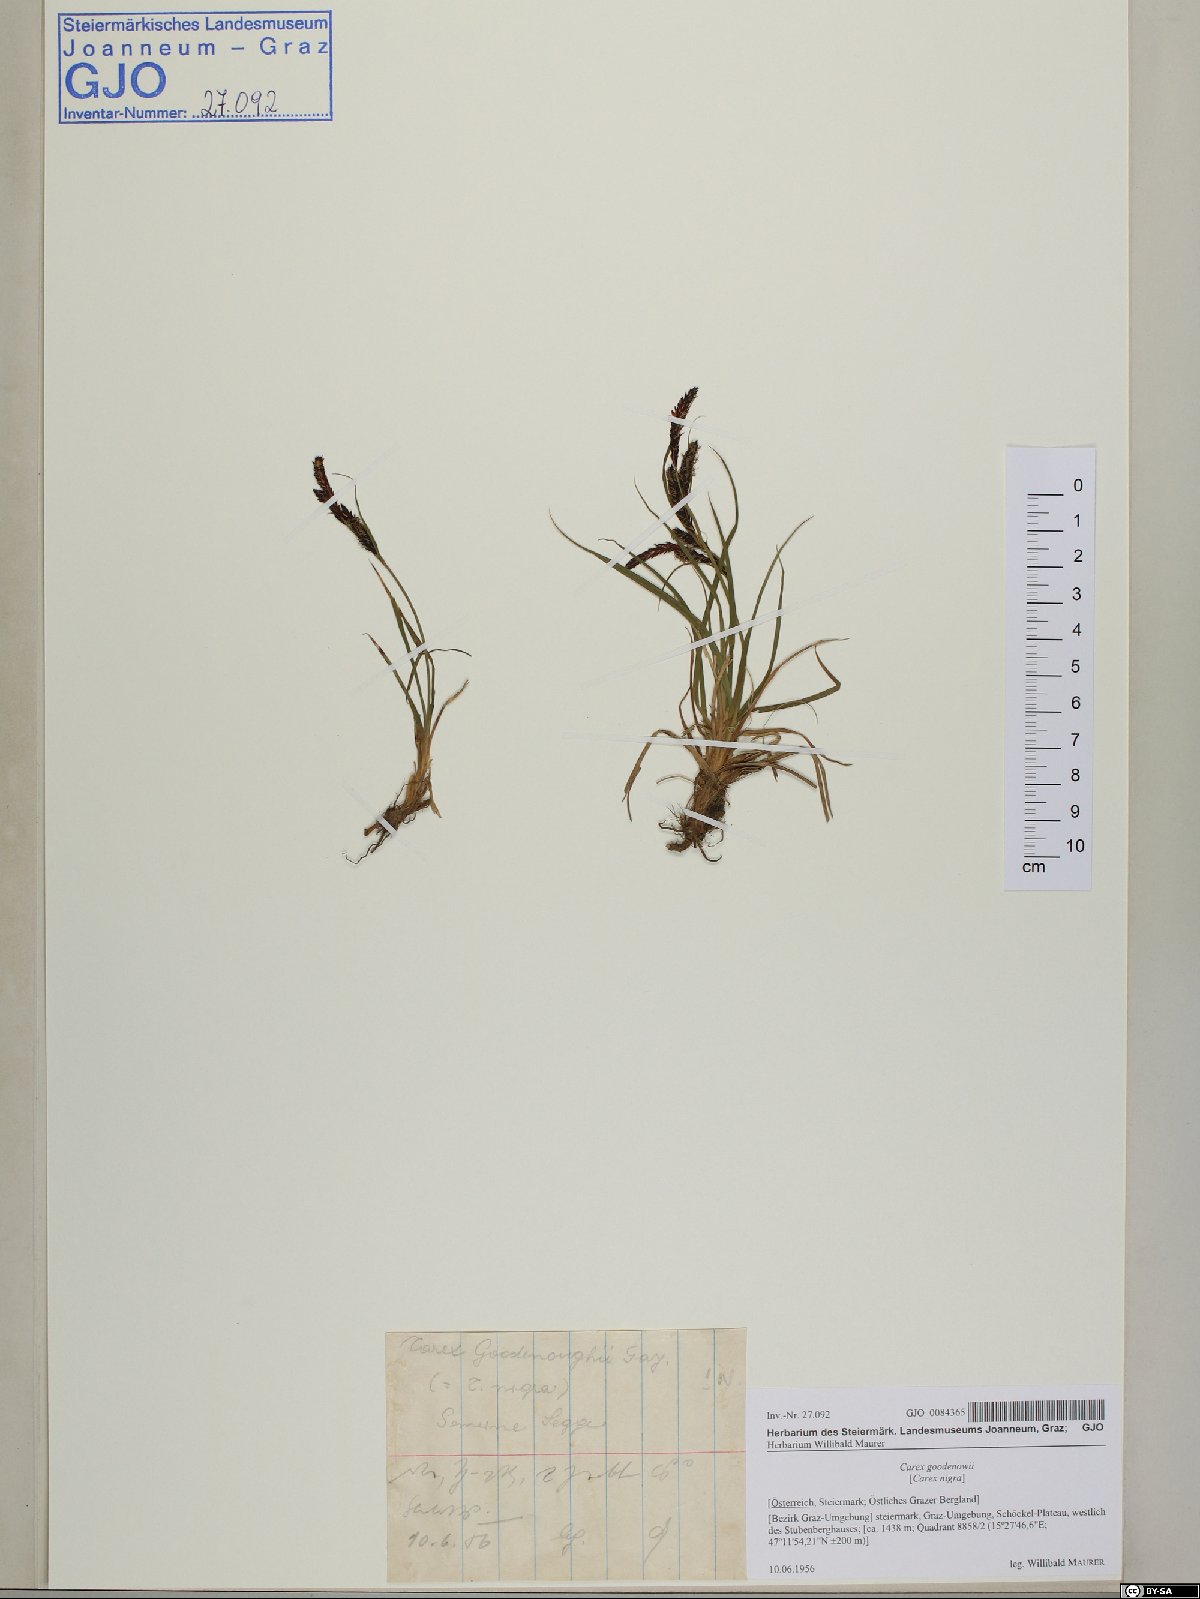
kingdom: Plantae
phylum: Tracheophyta
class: Liliopsida
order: Poales
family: Cyperaceae
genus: Carex
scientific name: Carex nigra
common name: Common sedge
